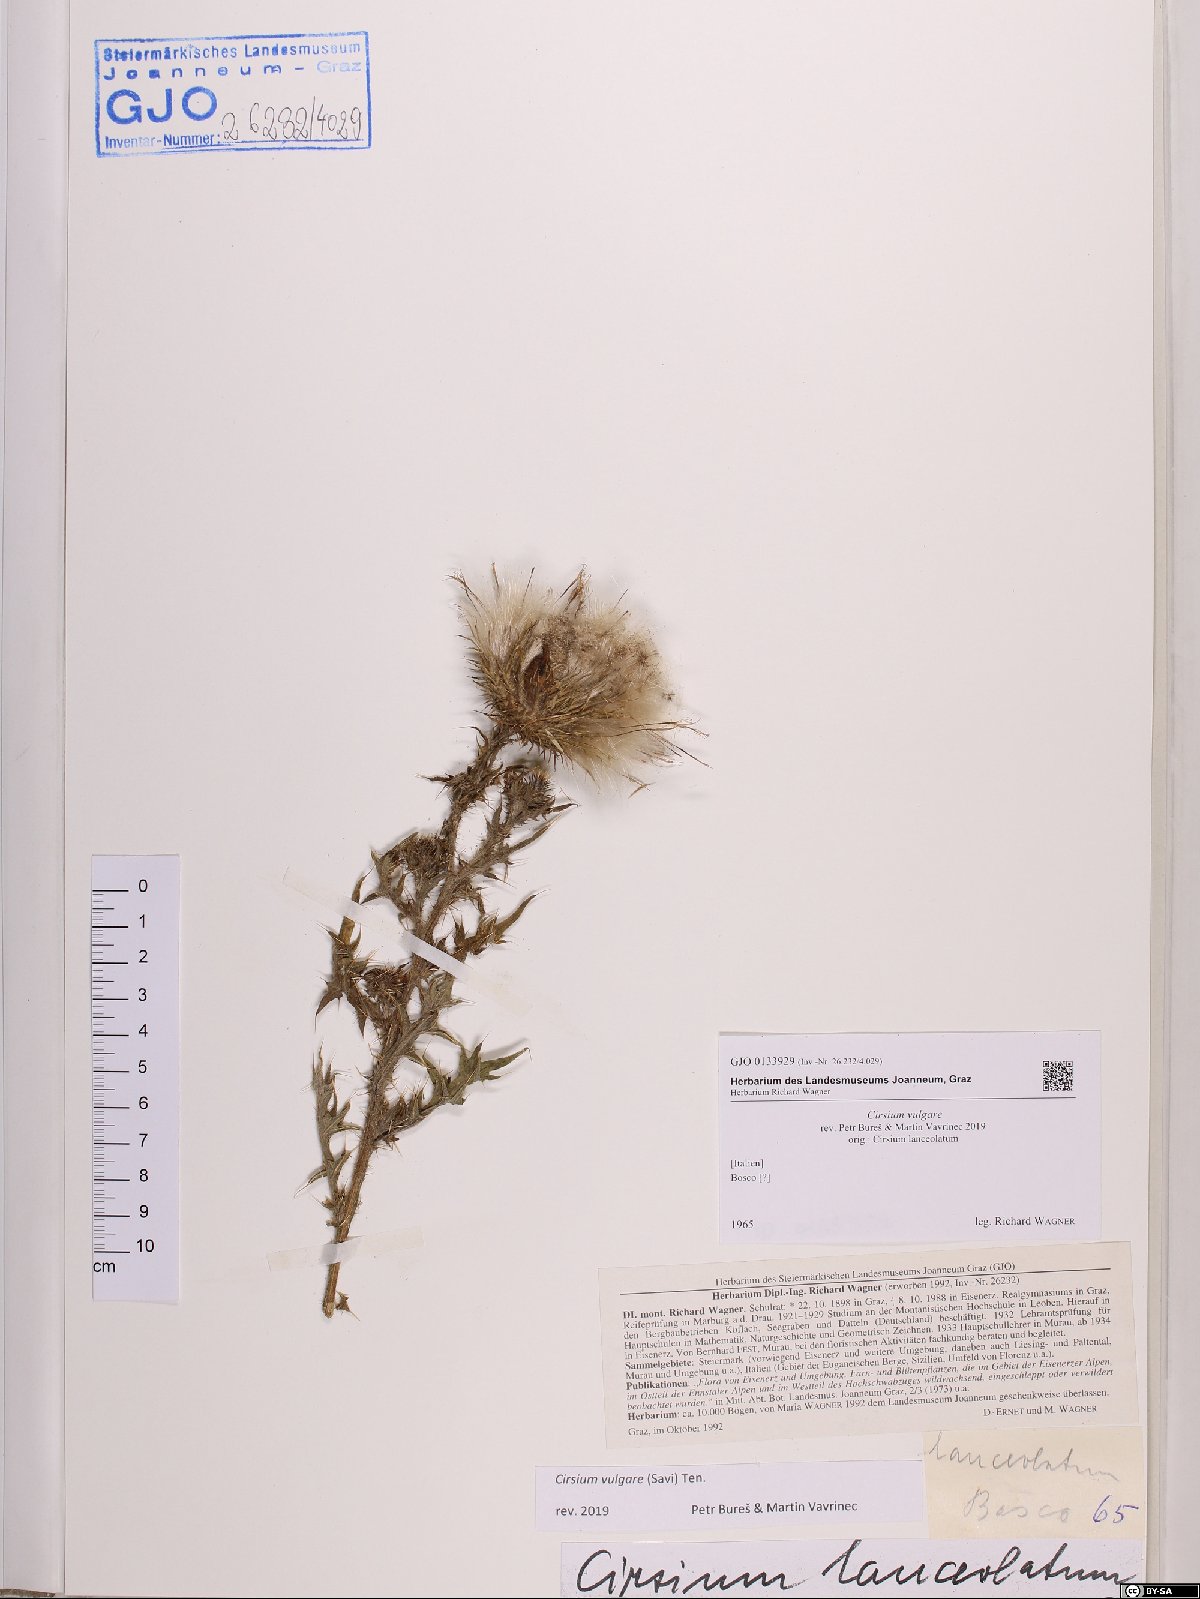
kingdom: Plantae
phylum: Tracheophyta
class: Magnoliopsida
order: Asterales
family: Asteraceae
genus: Cirsium
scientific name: Cirsium vulgare
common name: Bull thistle
